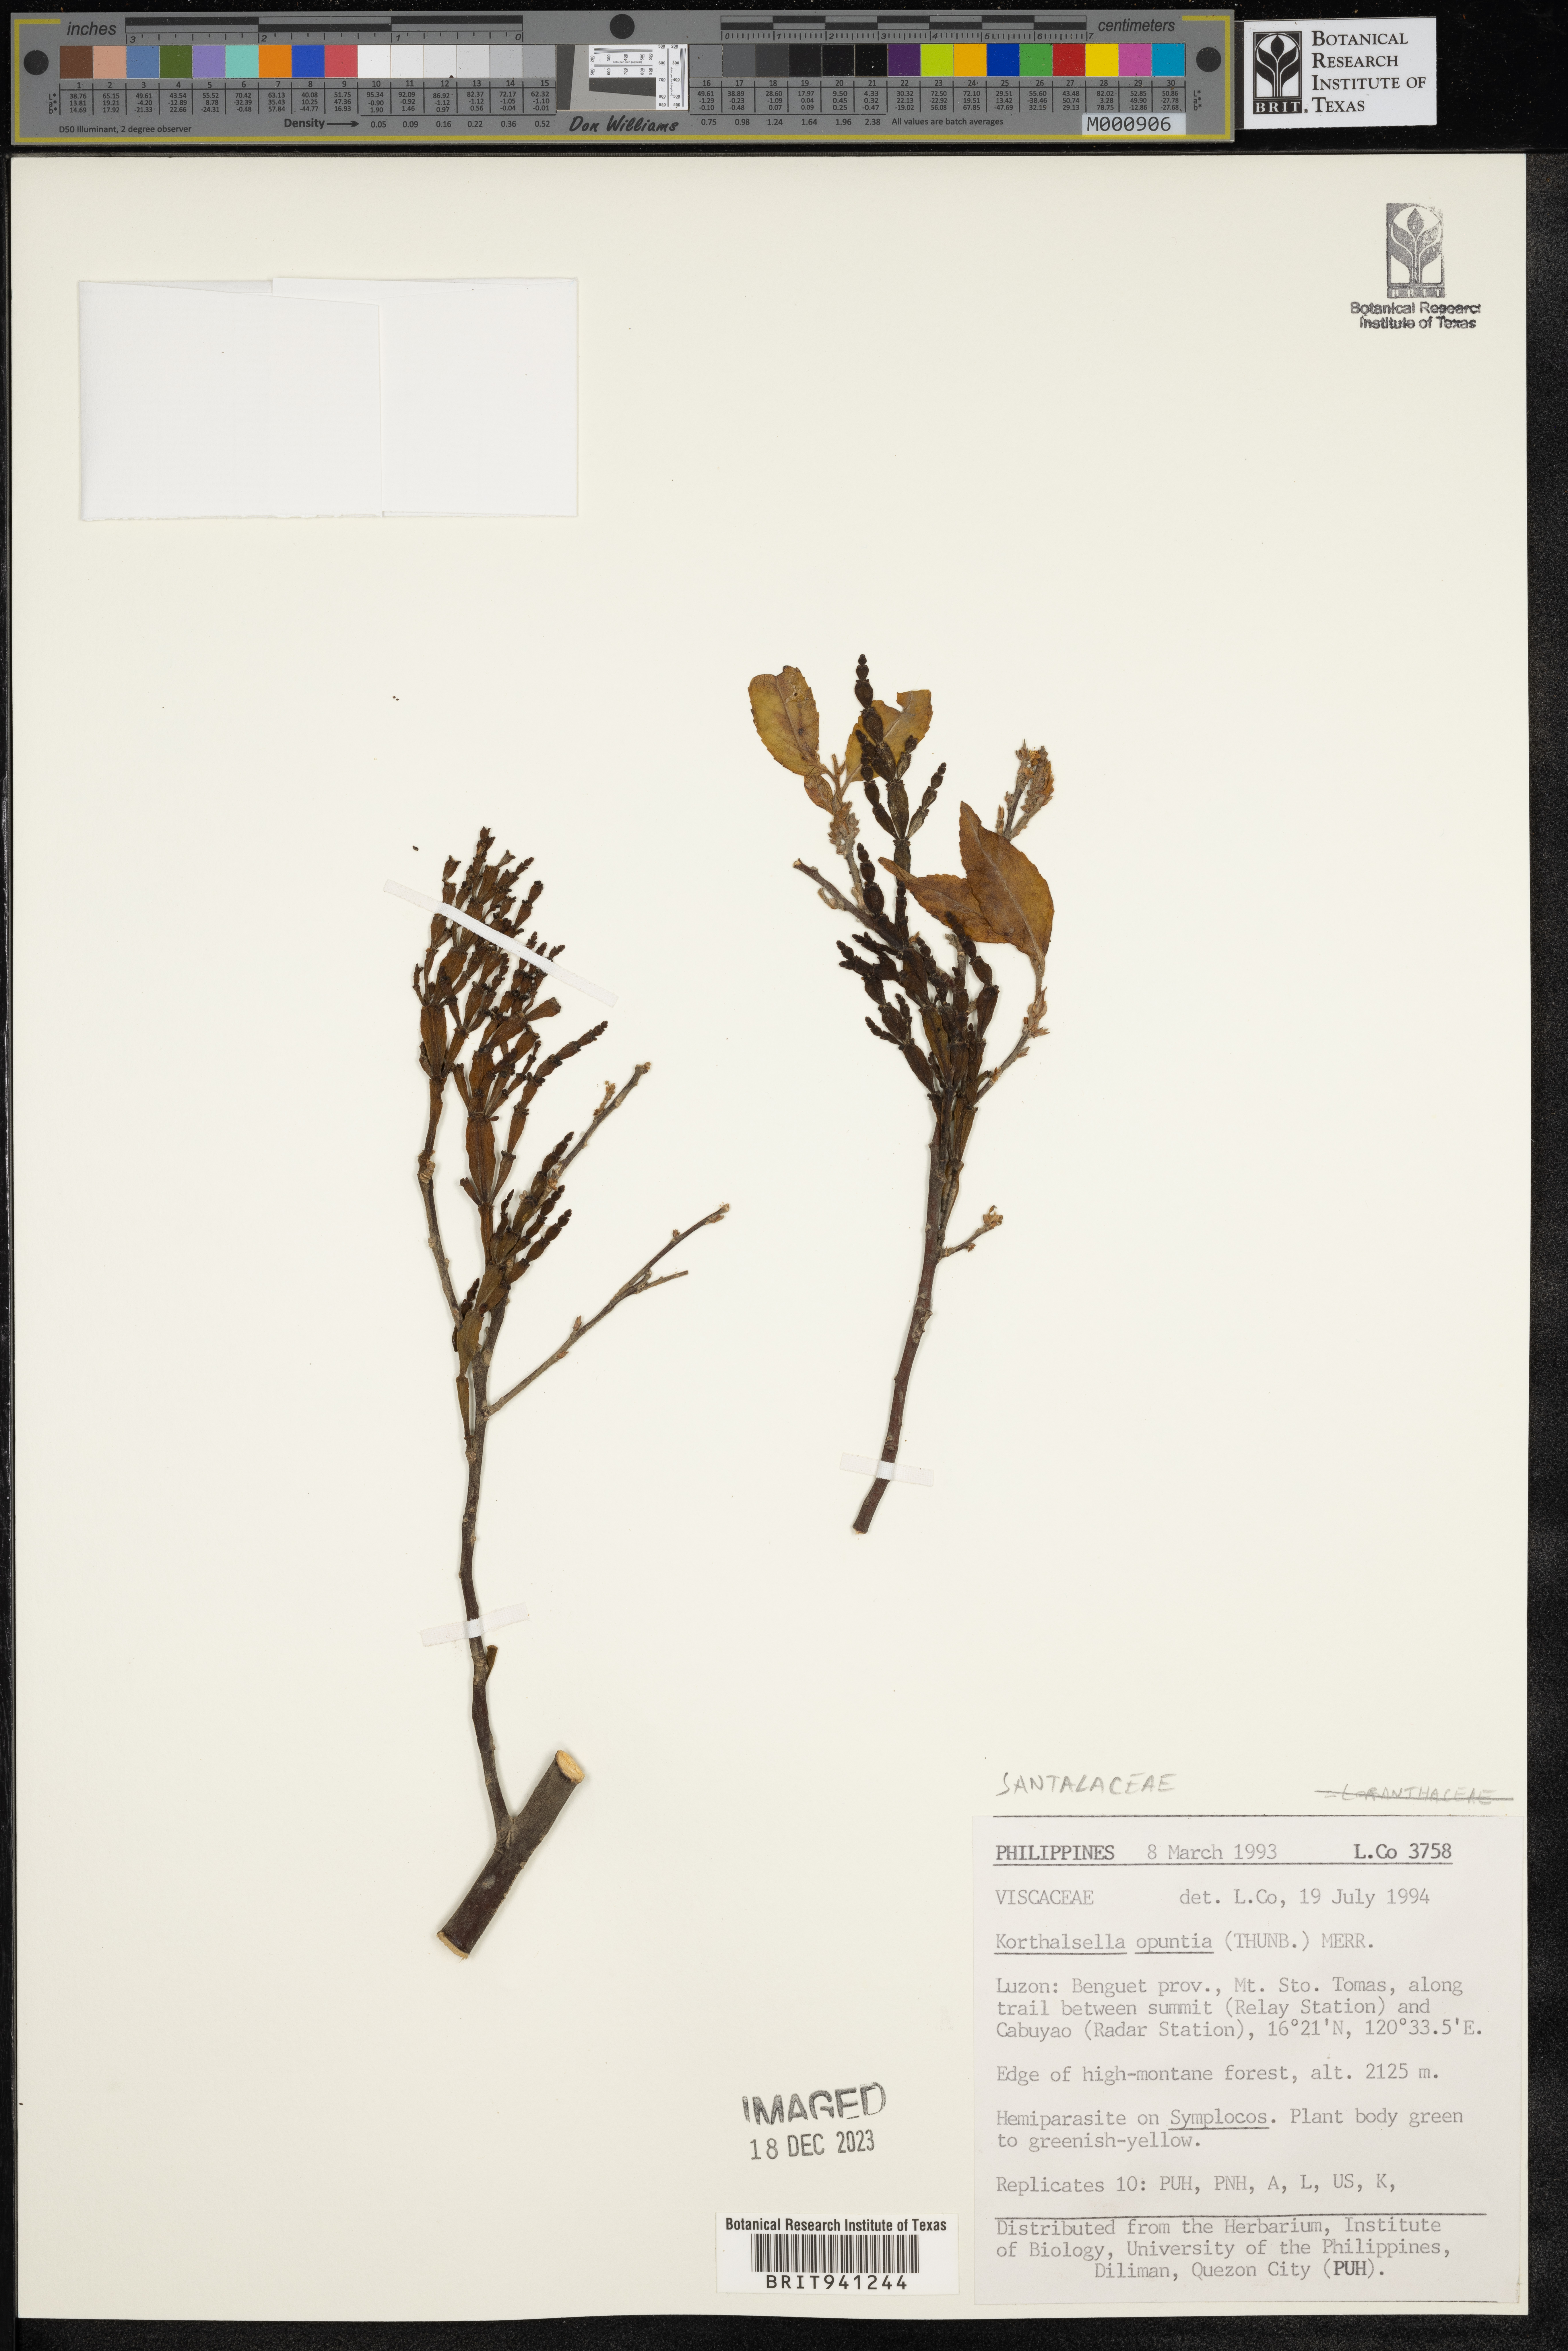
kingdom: Plantae
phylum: Tracheophyta
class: Magnoliopsida
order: Santalales
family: Santalaceae
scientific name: Santalaceae
